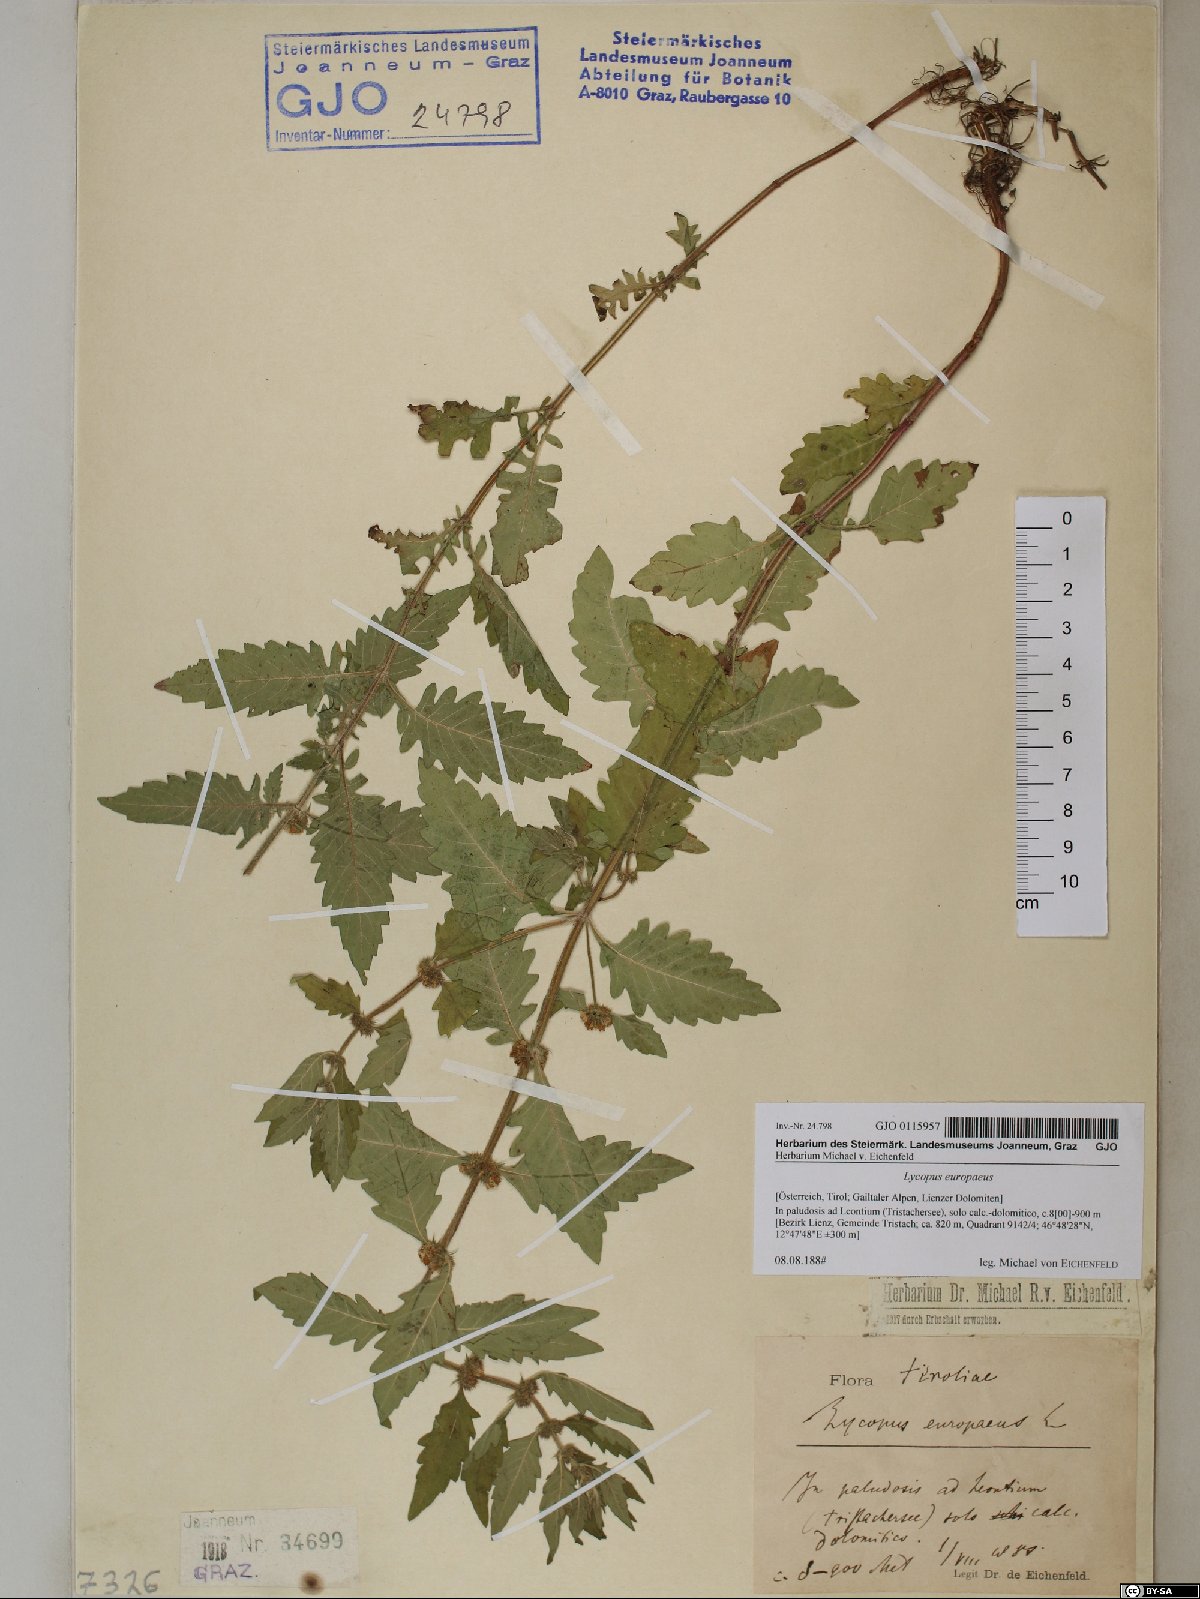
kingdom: Plantae
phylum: Tracheophyta
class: Magnoliopsida
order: Lamiales
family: Lamiaceae
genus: Lycopus
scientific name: Lycopus europaeus
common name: European bugleweed
